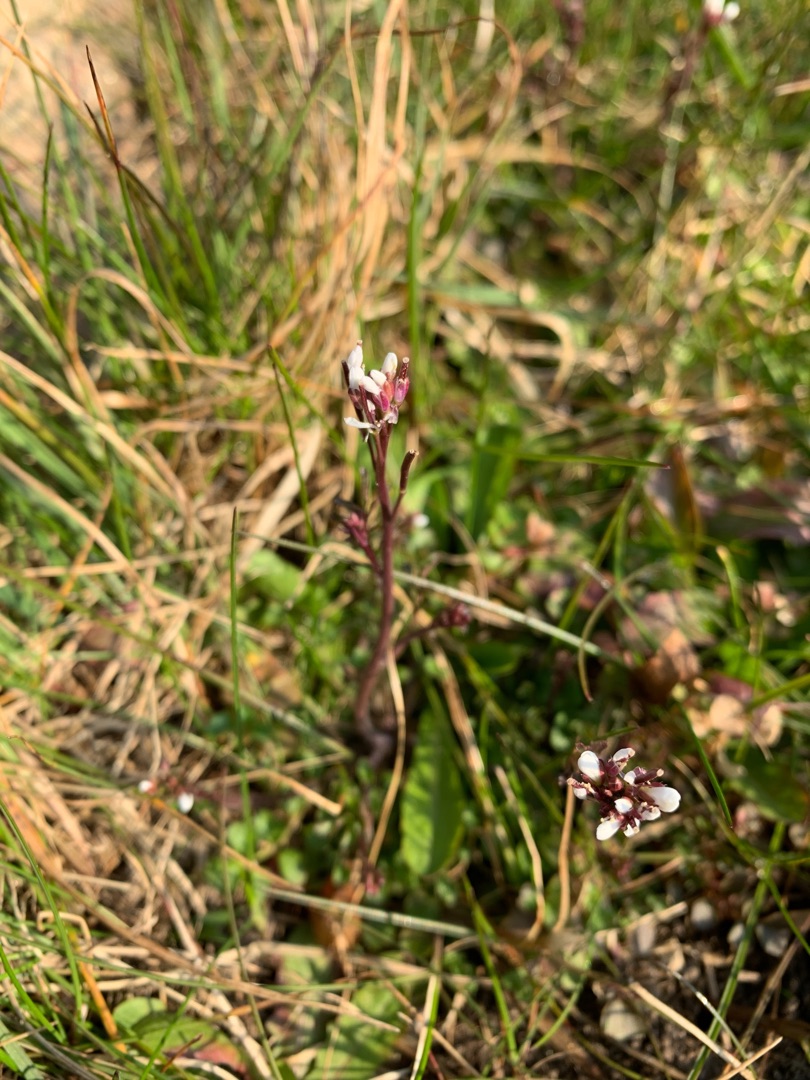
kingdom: Plantae
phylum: Tracheophyta
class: Magnoliopsida
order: Brassicales
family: Brassicaceae
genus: Cardamine
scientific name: Cardamine hirsuta
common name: Roset-springklap
